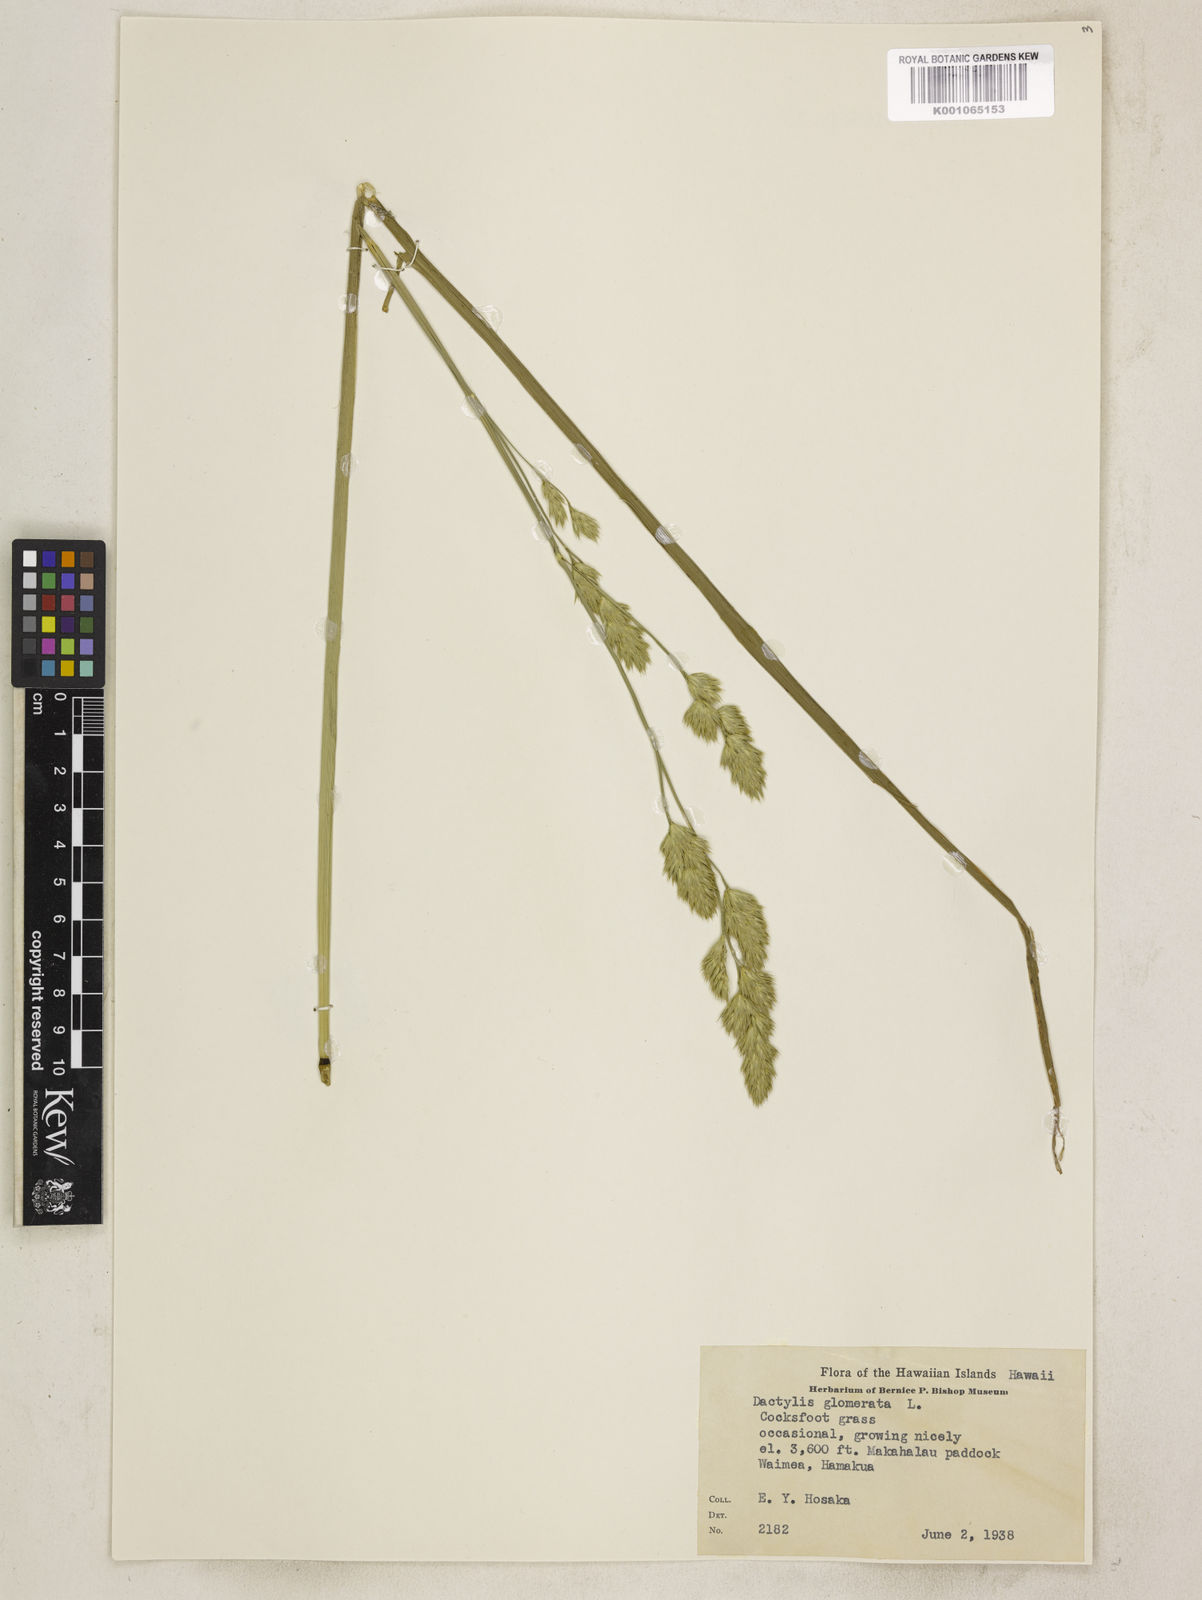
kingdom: Plantae
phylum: Tracheophyta
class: Liliopsida
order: Poales
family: Poaceae
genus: Dactylis
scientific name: Dactylis glomerata
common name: Orchardgrass
